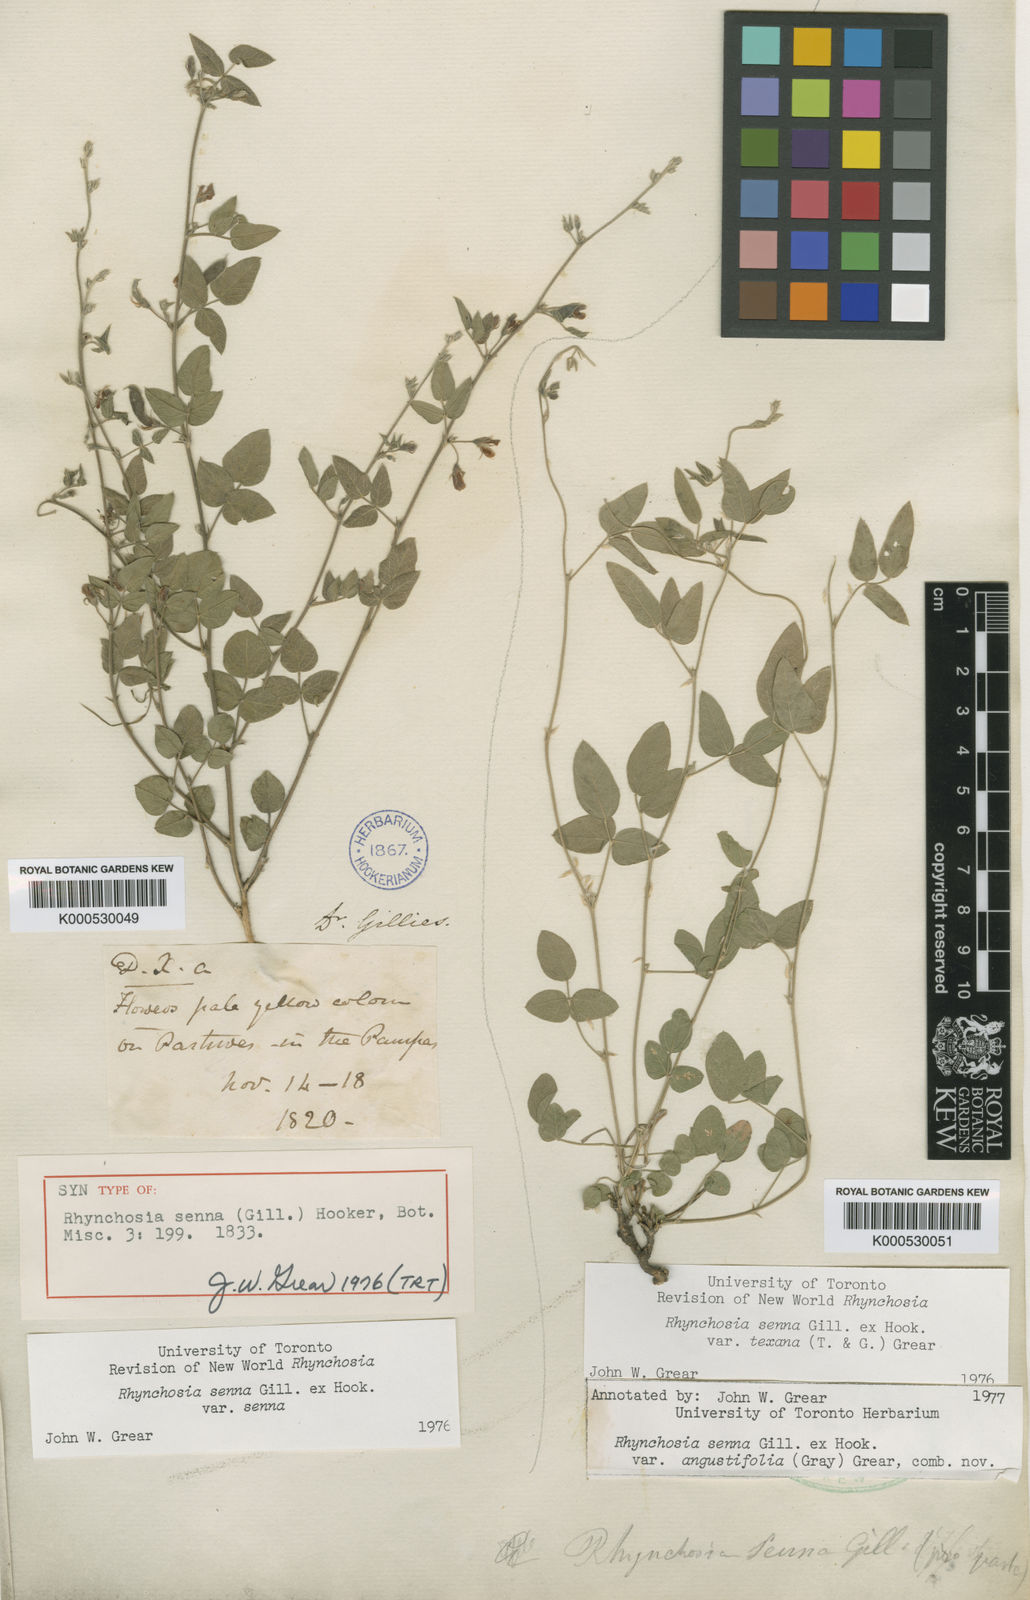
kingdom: Plantae
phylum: Tracheophyta
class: Magnoliopsida
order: Fabales
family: Fabaceae
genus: Rhynchosia
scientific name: Rhynchosia senna
